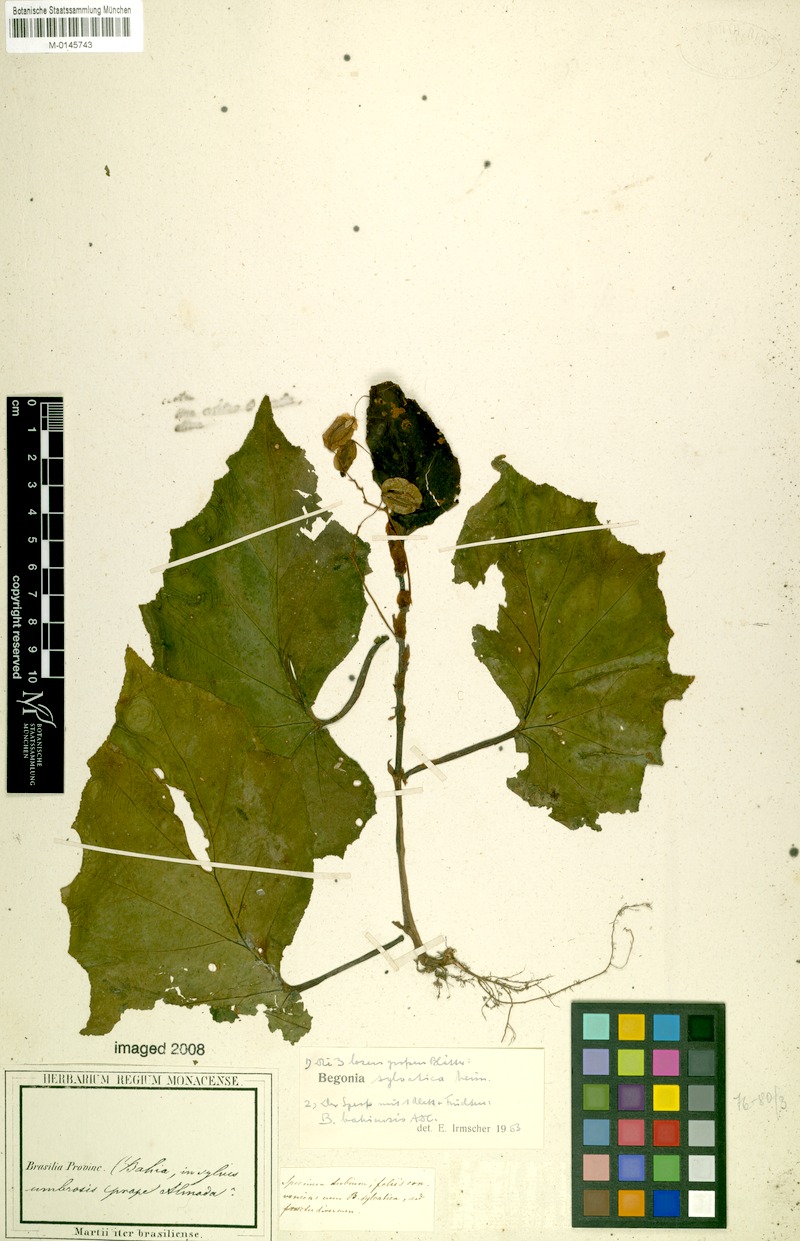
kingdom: Plantae
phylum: Tracheophyta
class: Magnoliopsida
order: Cucurbitales
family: Begoniaceae
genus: Begonia
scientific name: Begonia sylvatica
